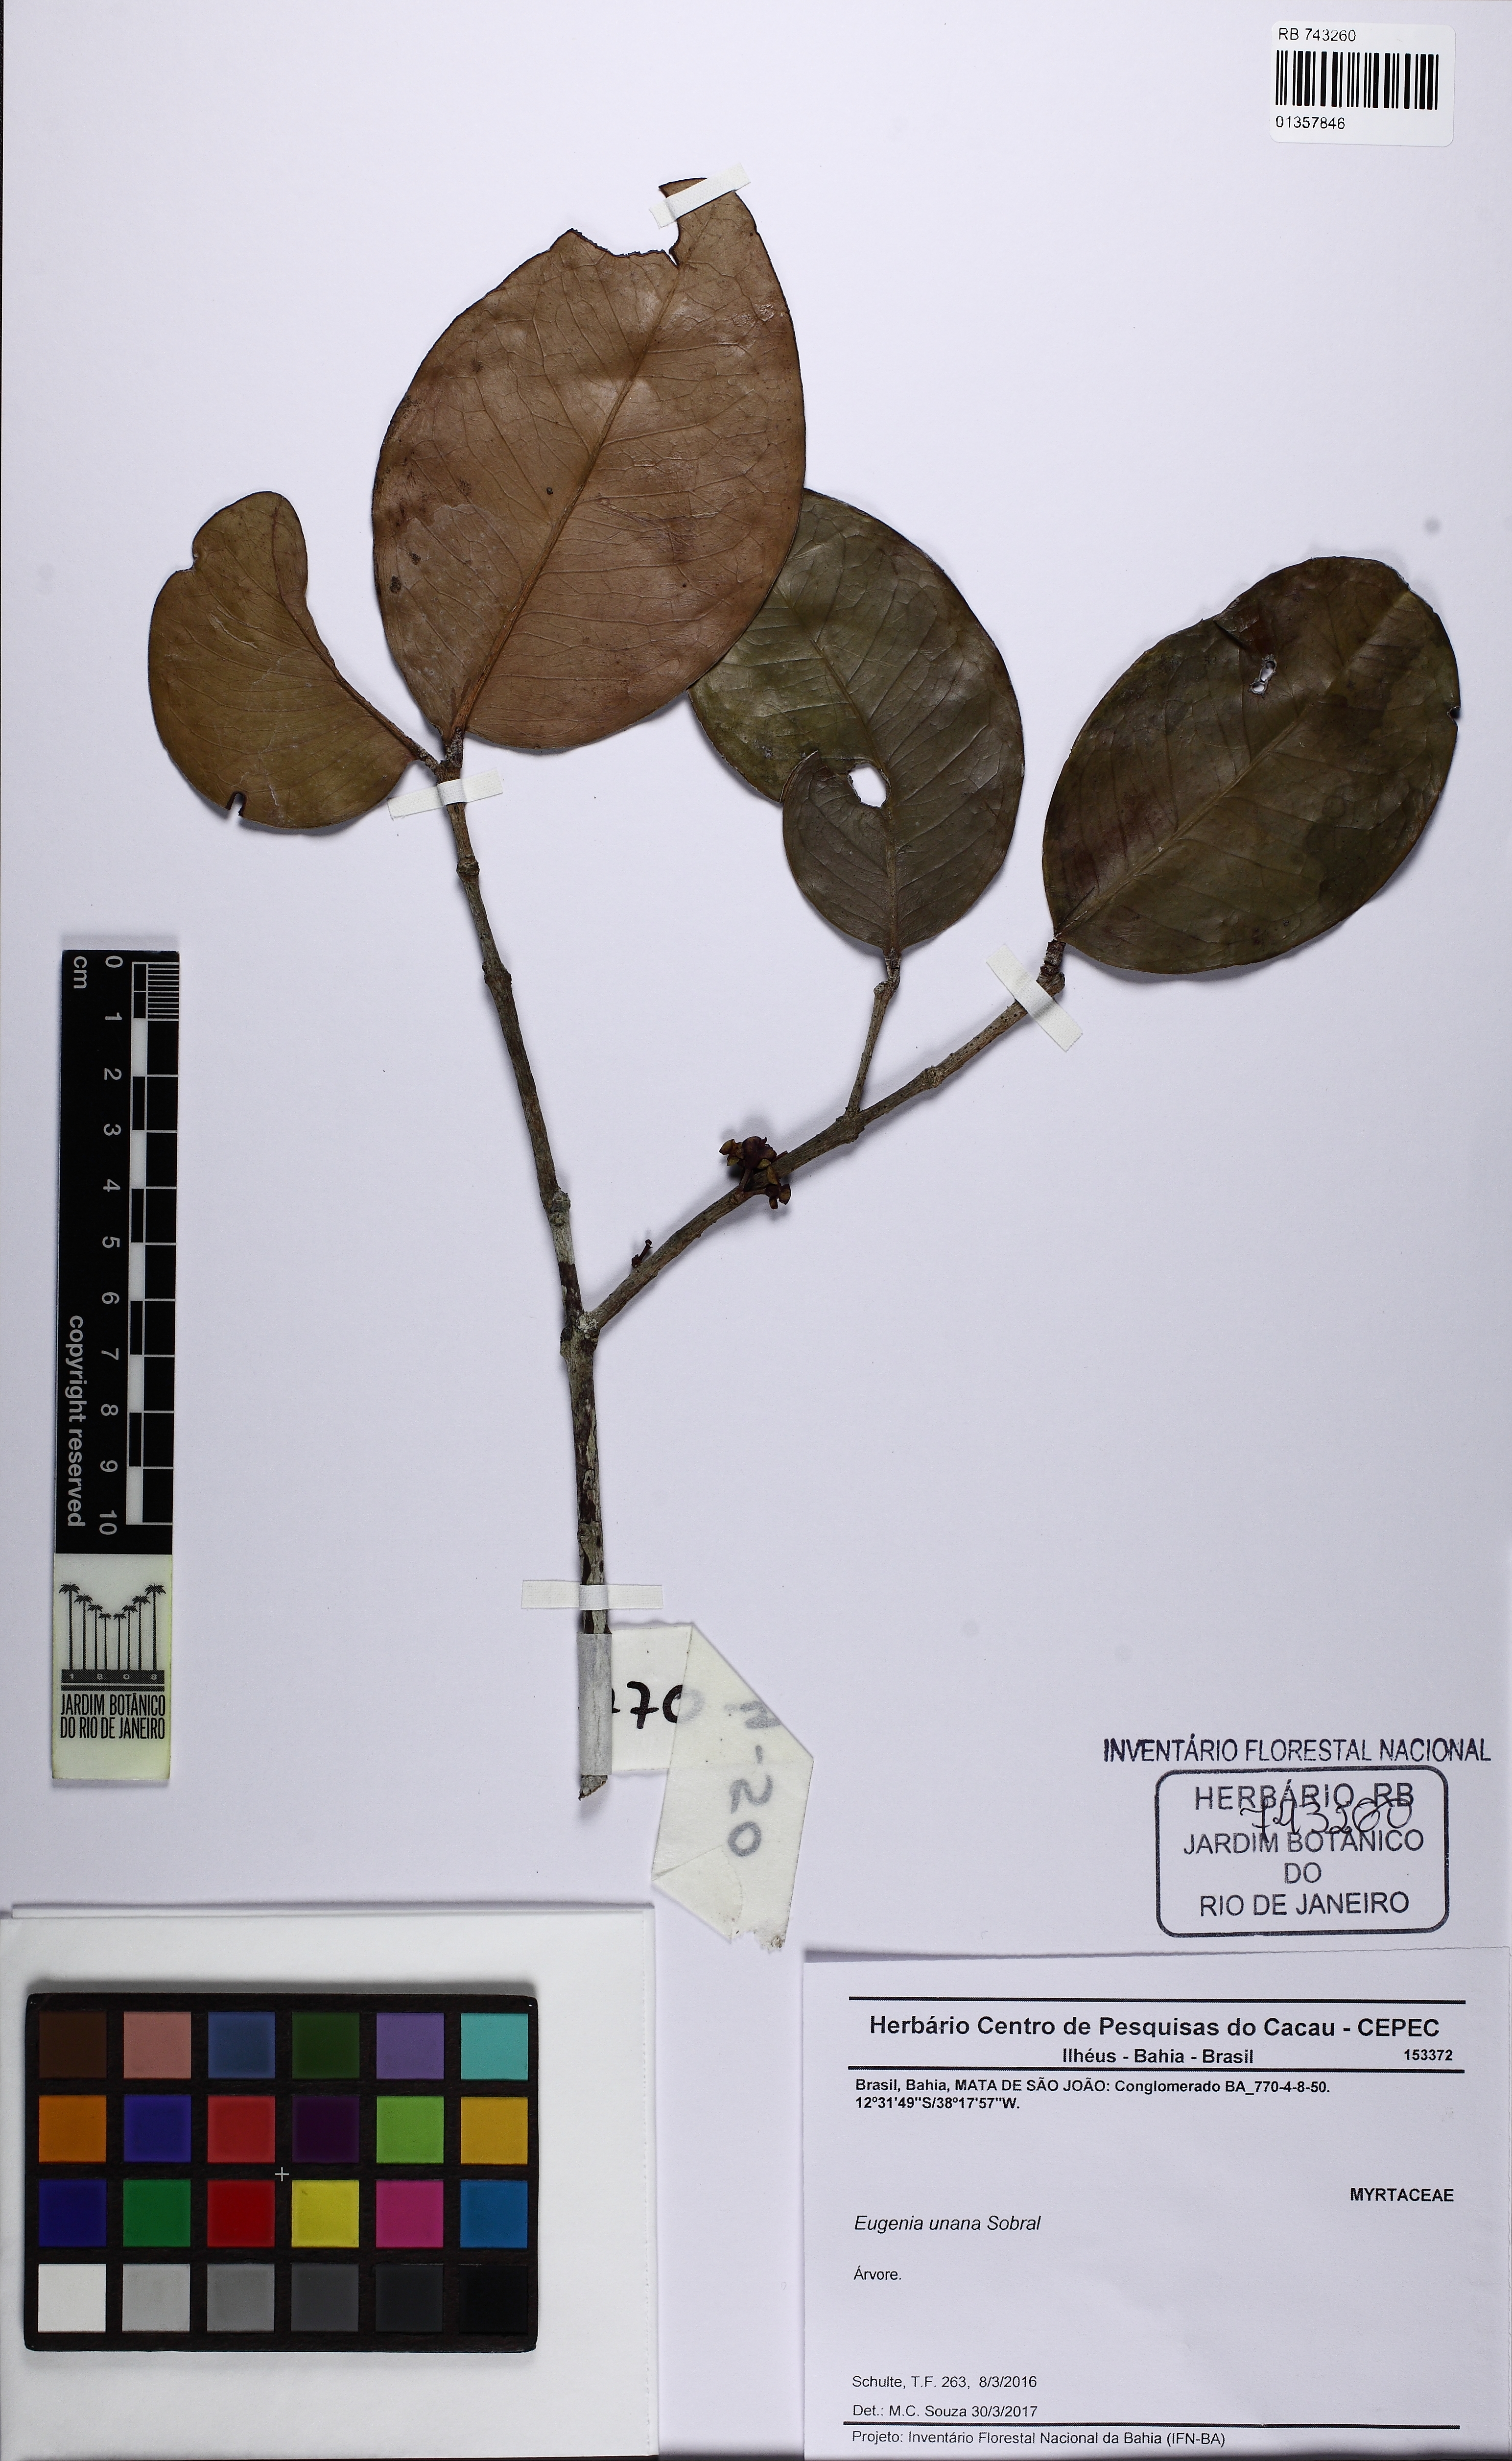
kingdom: Plantae
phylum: Tracheophyta
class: Magnoliopsida
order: Myrtales
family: Myrtaceae
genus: Eugenia
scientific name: Eugenia unana
